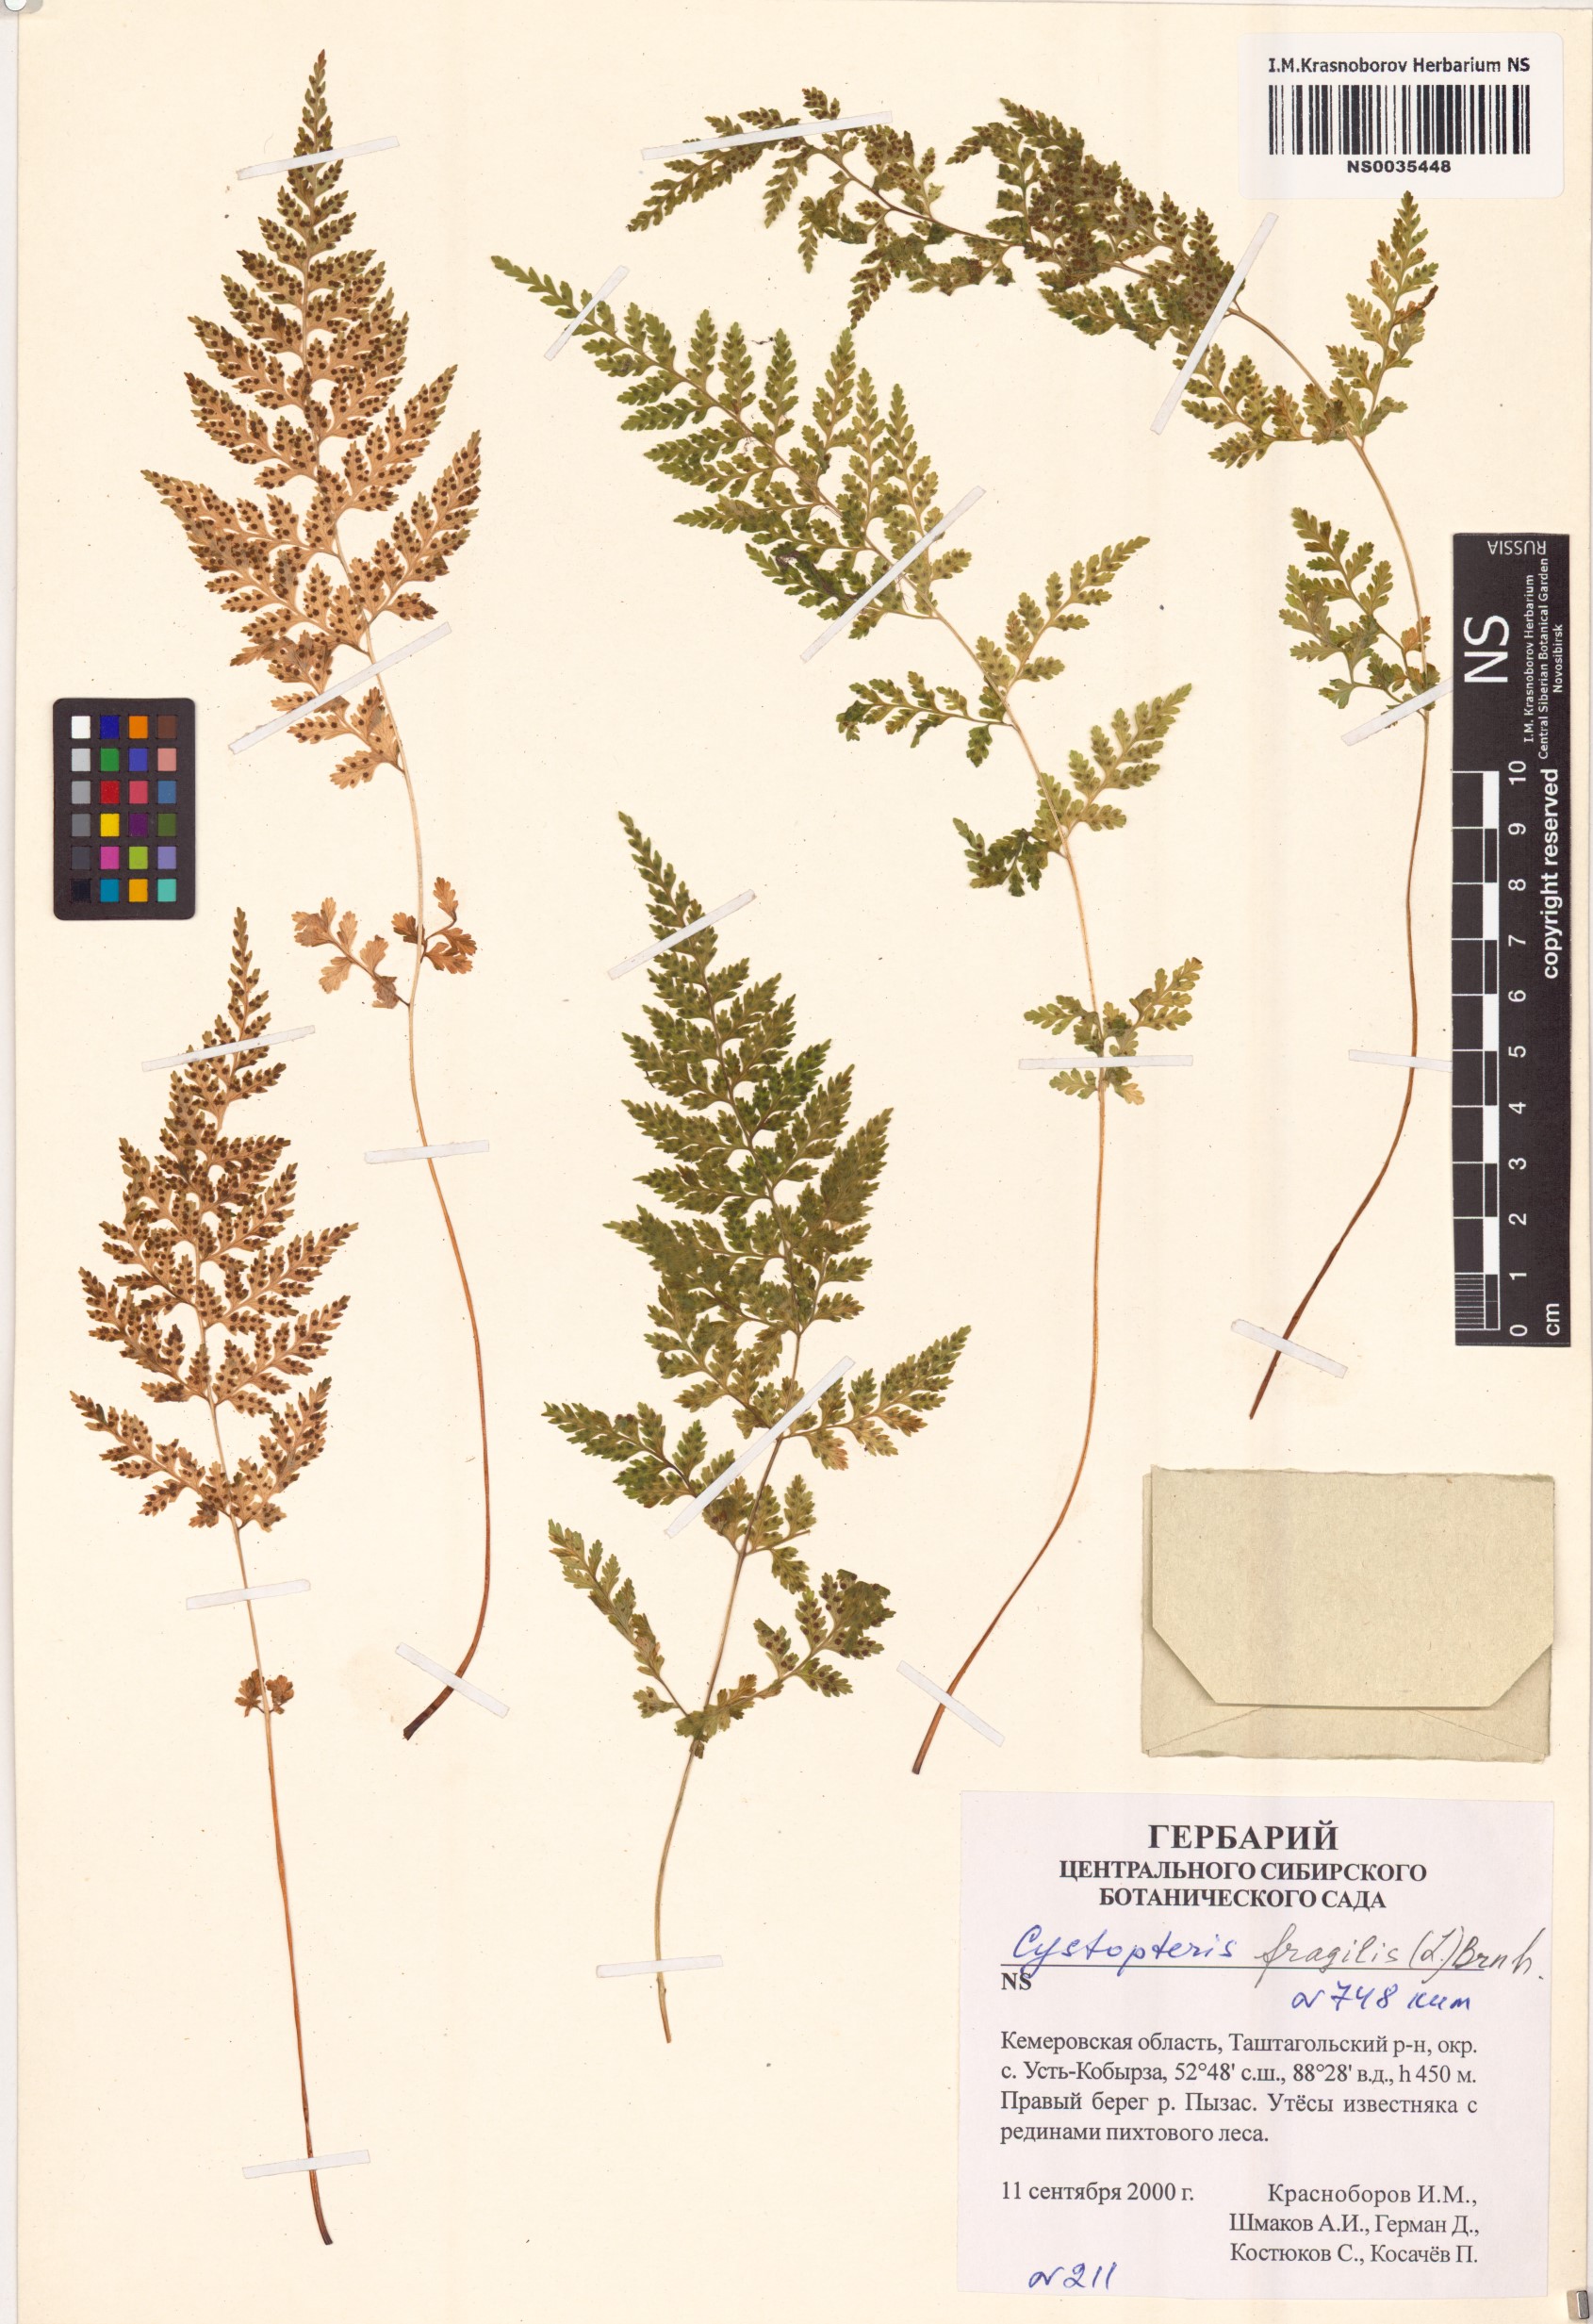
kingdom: Plantae
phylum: Tracheophyta
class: Polypodiopsida
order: Polypodiales
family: Cystopteridaceae
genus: Cystopteris
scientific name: Cystopteris fragilis
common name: Brittle bladder fern
